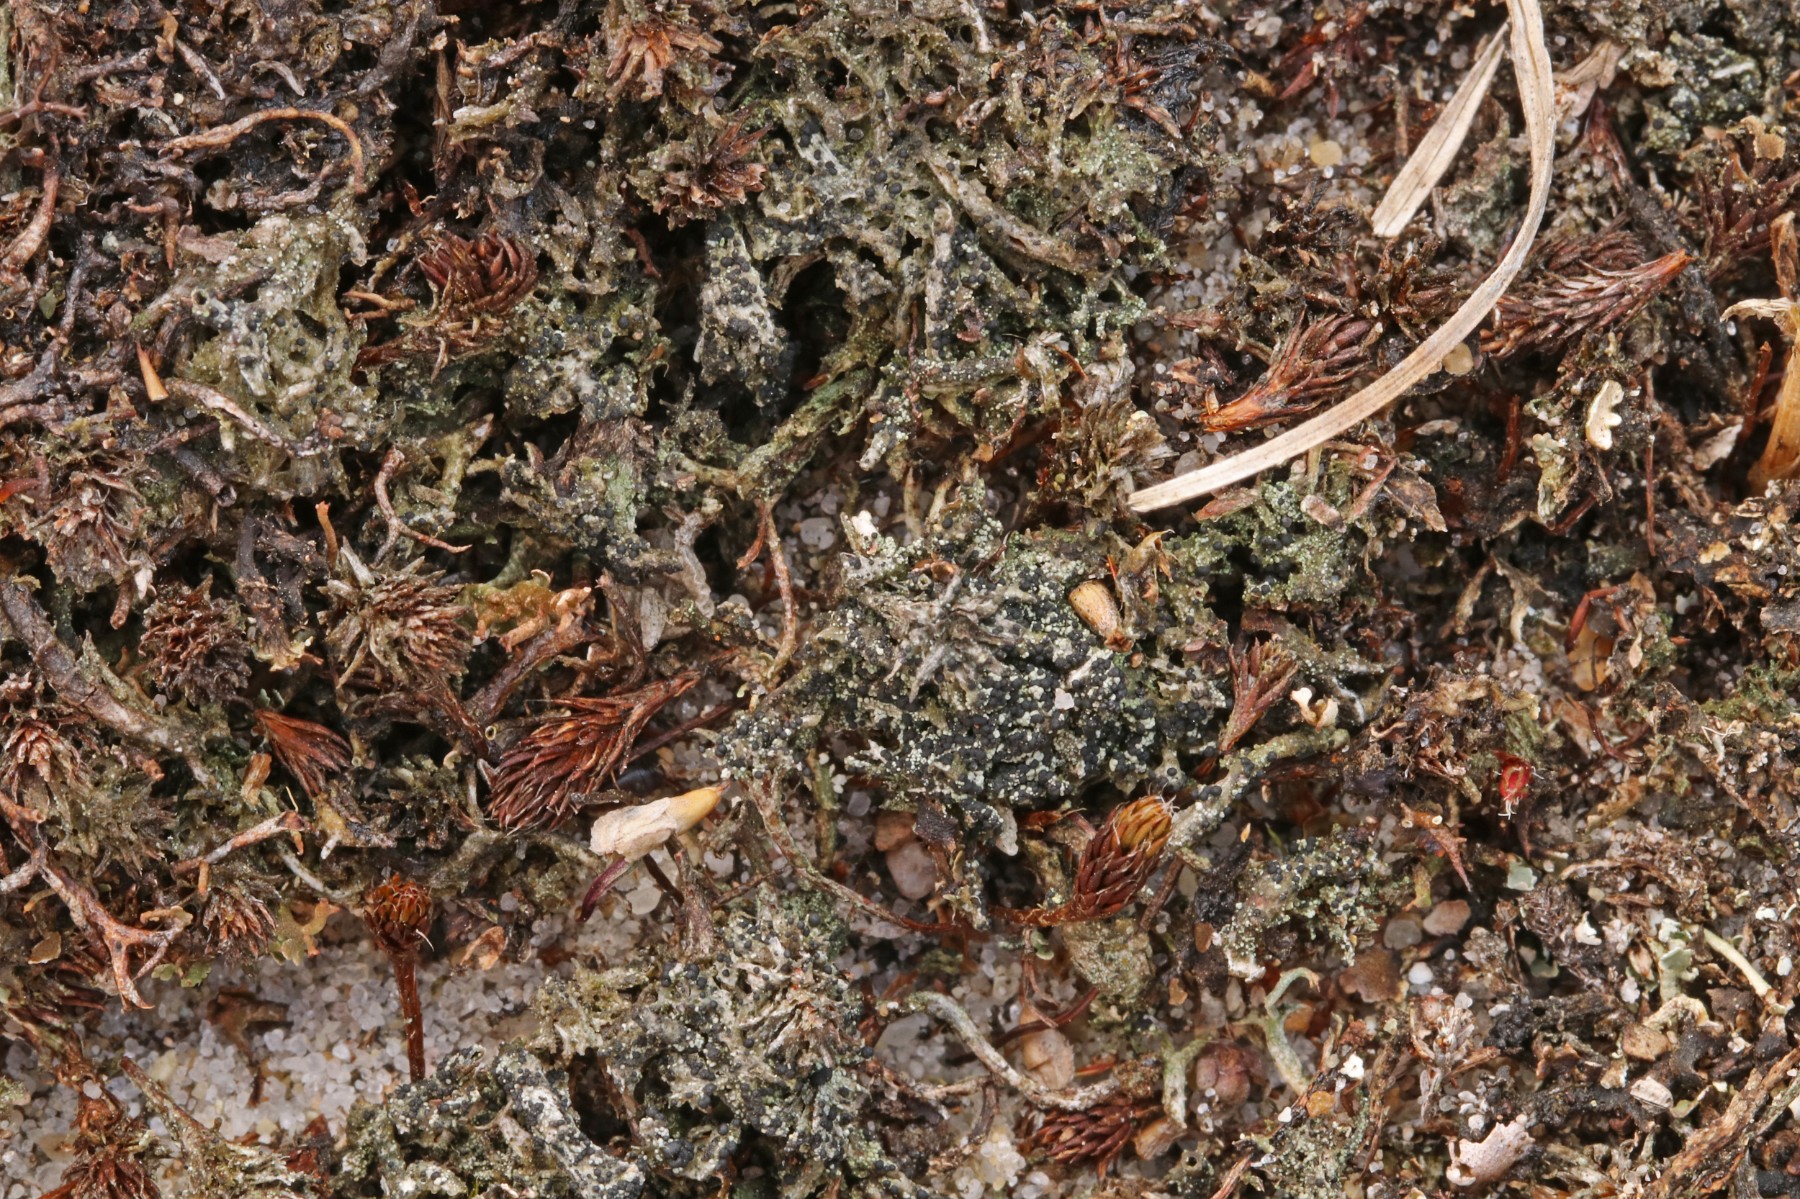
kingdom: Fungi
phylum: Ascomycota
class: Lecanoromycetes
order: Lecanorales
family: Byssolomataceae
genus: Micarea
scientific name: Micarea lignaria
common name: tørve-knaplav
